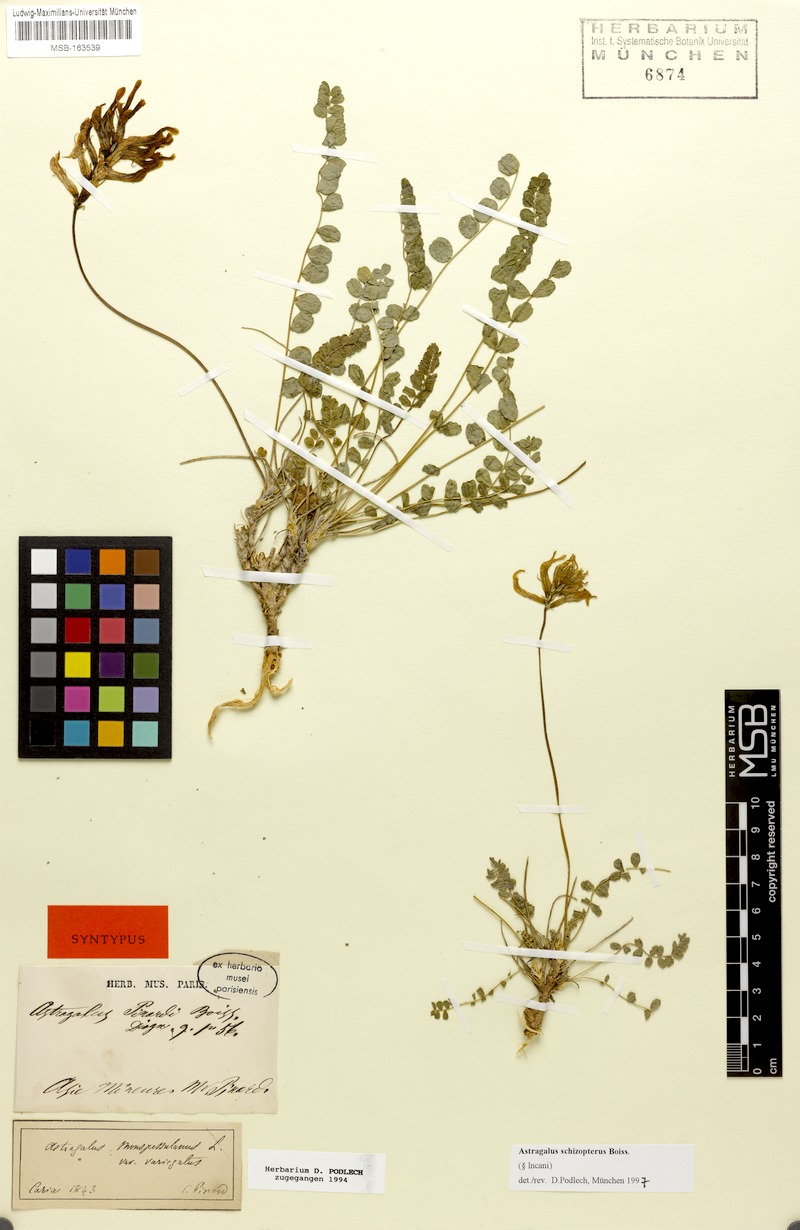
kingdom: Plantae
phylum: Tracheophyta
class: Magnoliopsida
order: Fabales
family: Fabaceae
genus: Astragalus
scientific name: Astragalus schizopterus
